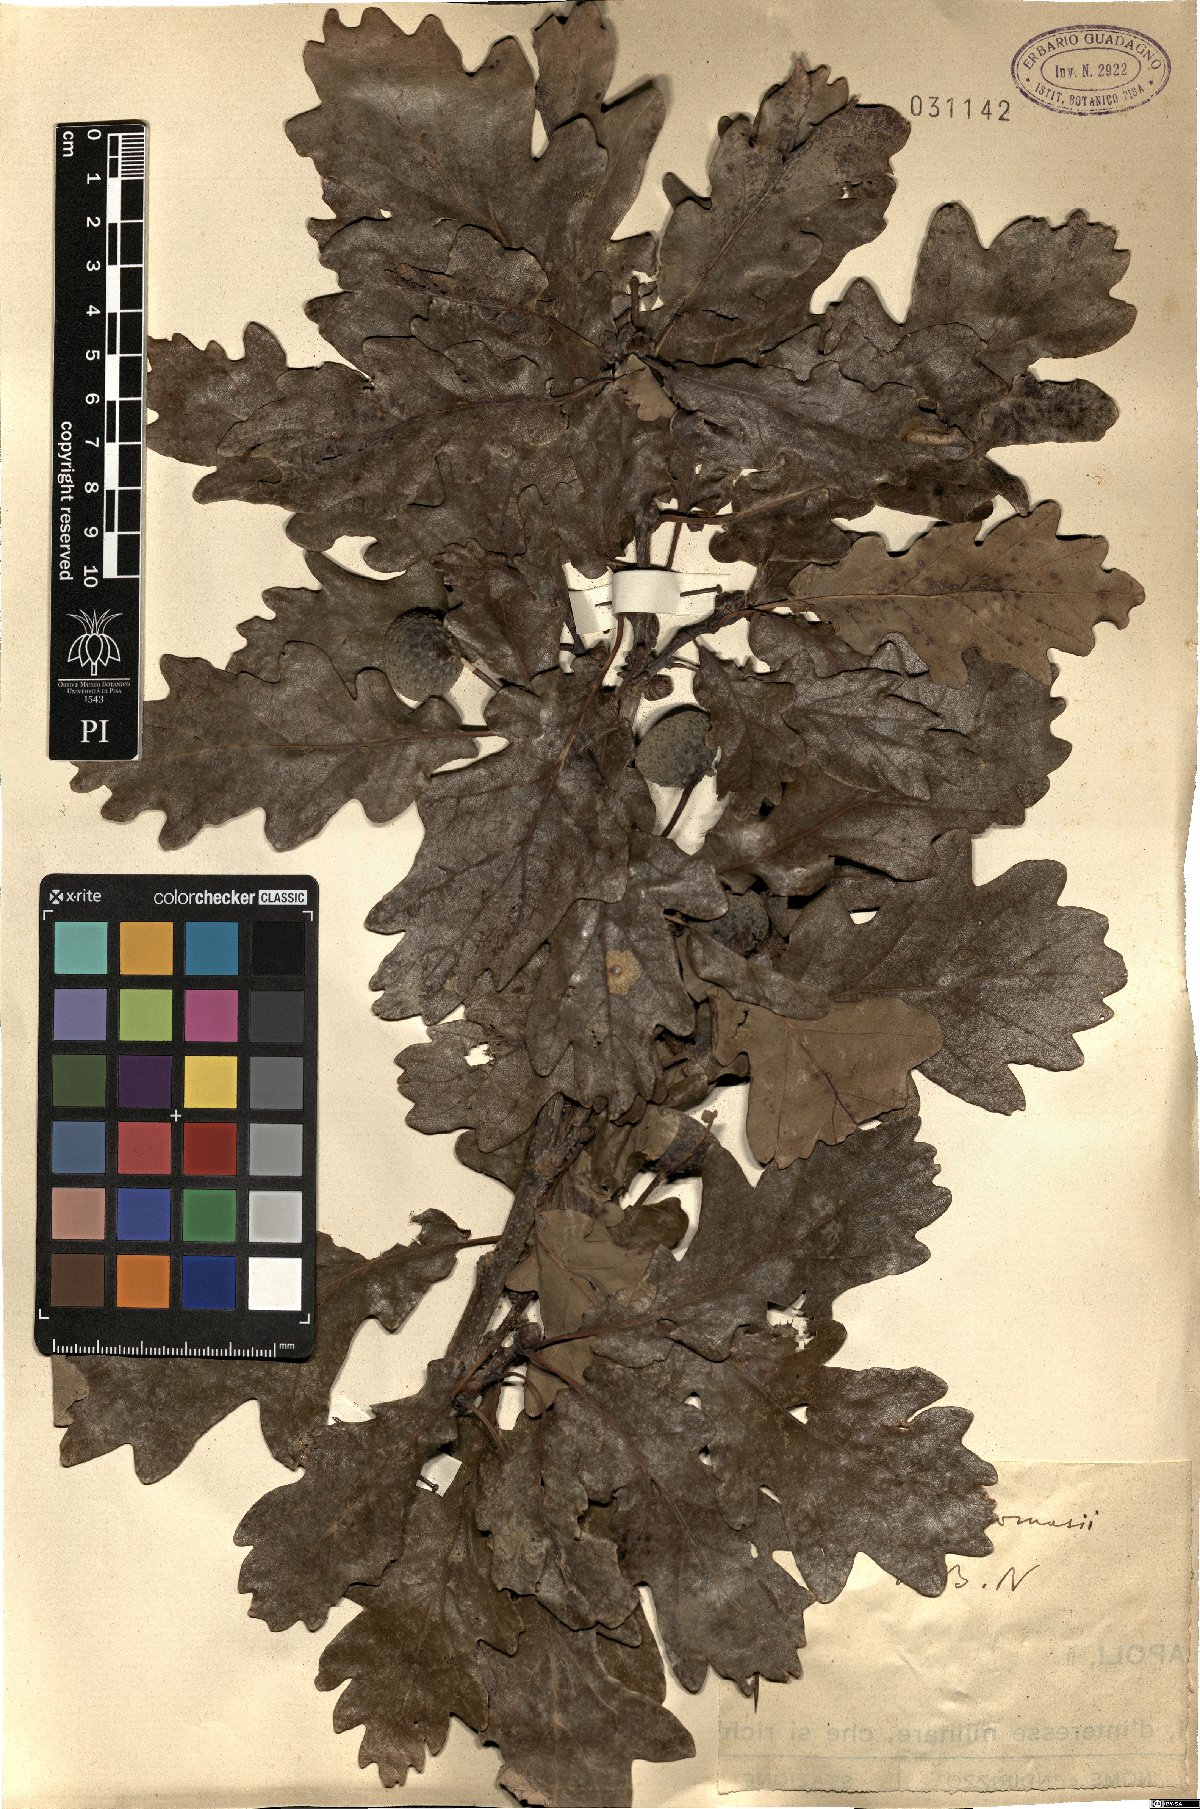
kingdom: Plantae
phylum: Tracheophyta
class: Magnoliopsida
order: Fagales
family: Fagaceae
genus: Quercus
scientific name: Quercus robur
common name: Pedunculate oak
